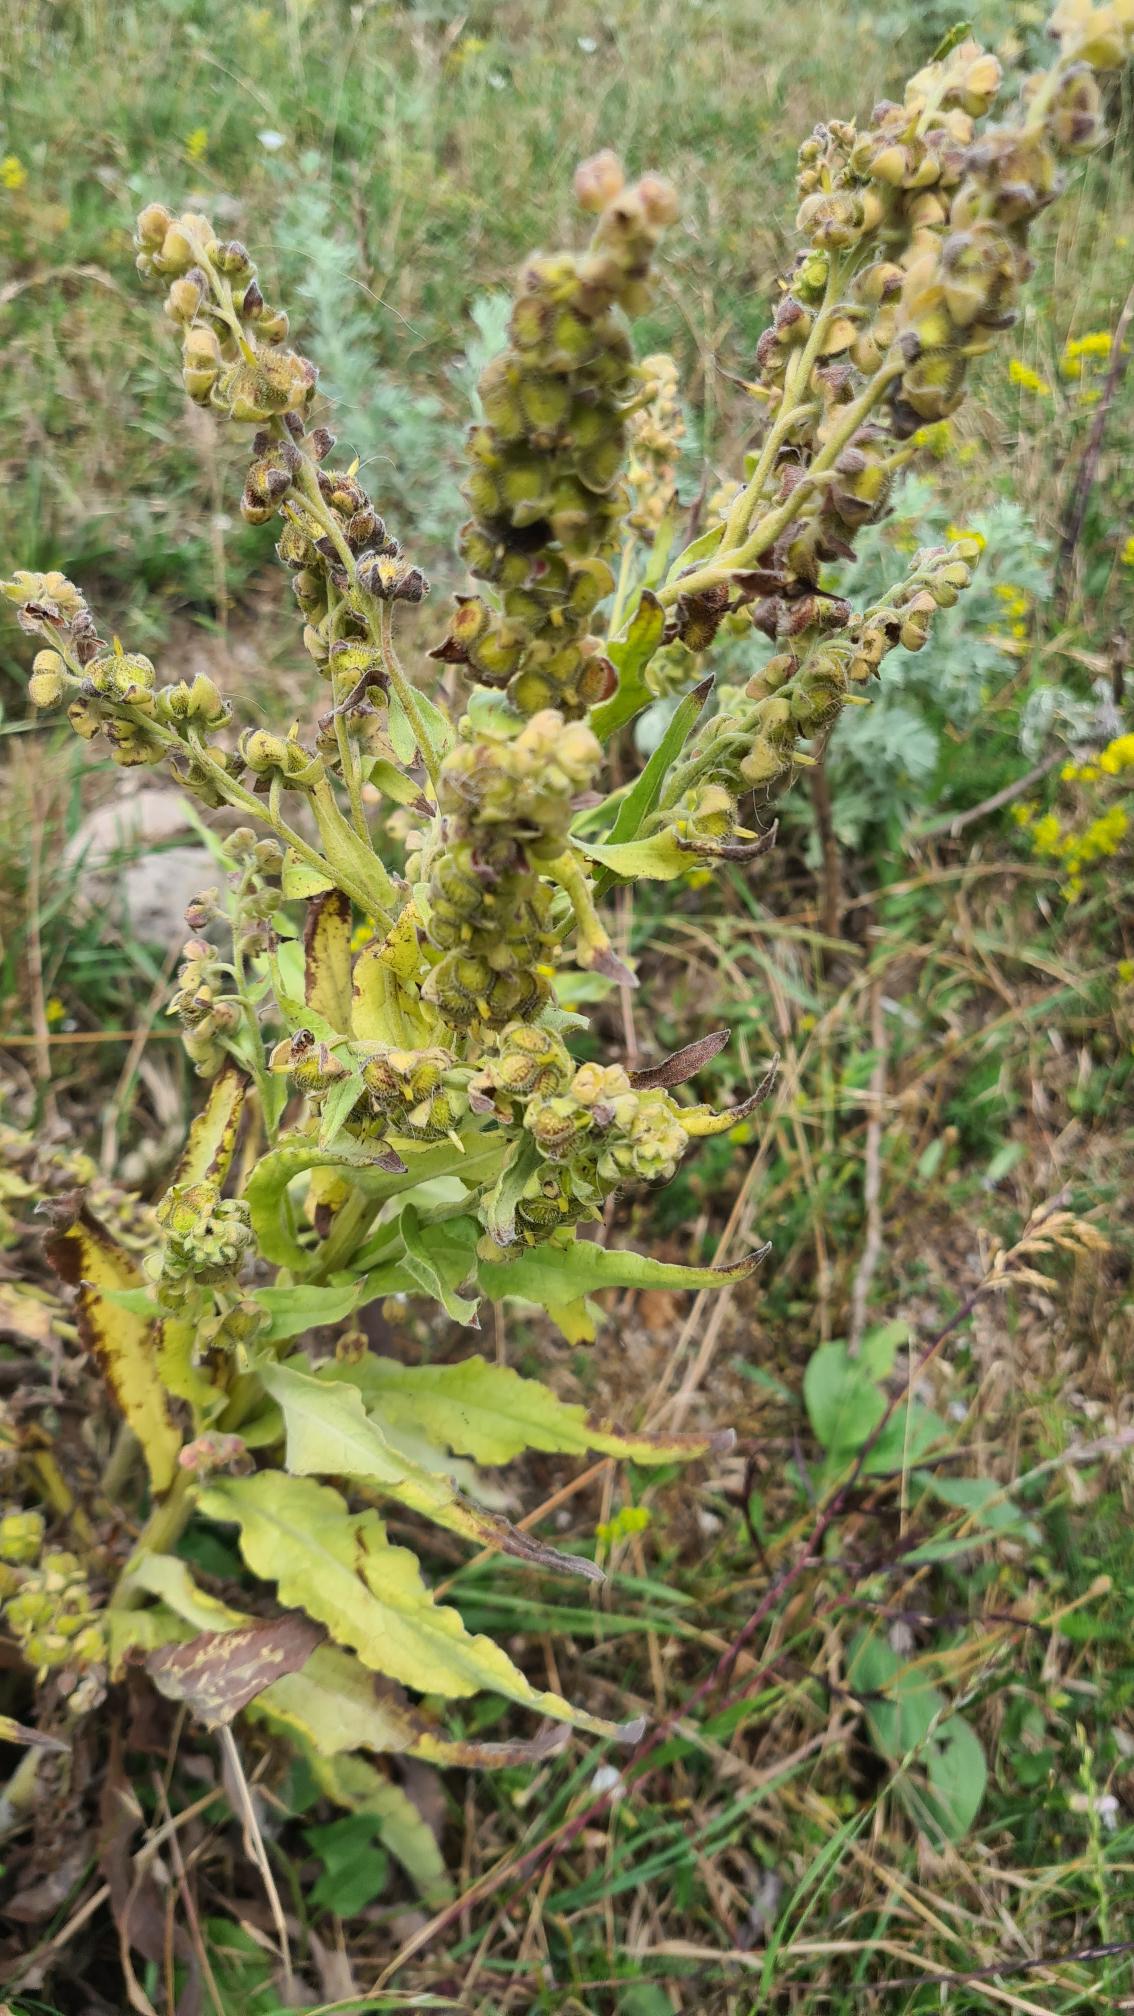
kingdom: Plantae
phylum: Tracheophyta
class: Magnoliopsida
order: Boraginales
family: Boraginaceae
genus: Cynoglossum
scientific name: Cynoglossum officinale
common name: Hundetunge
